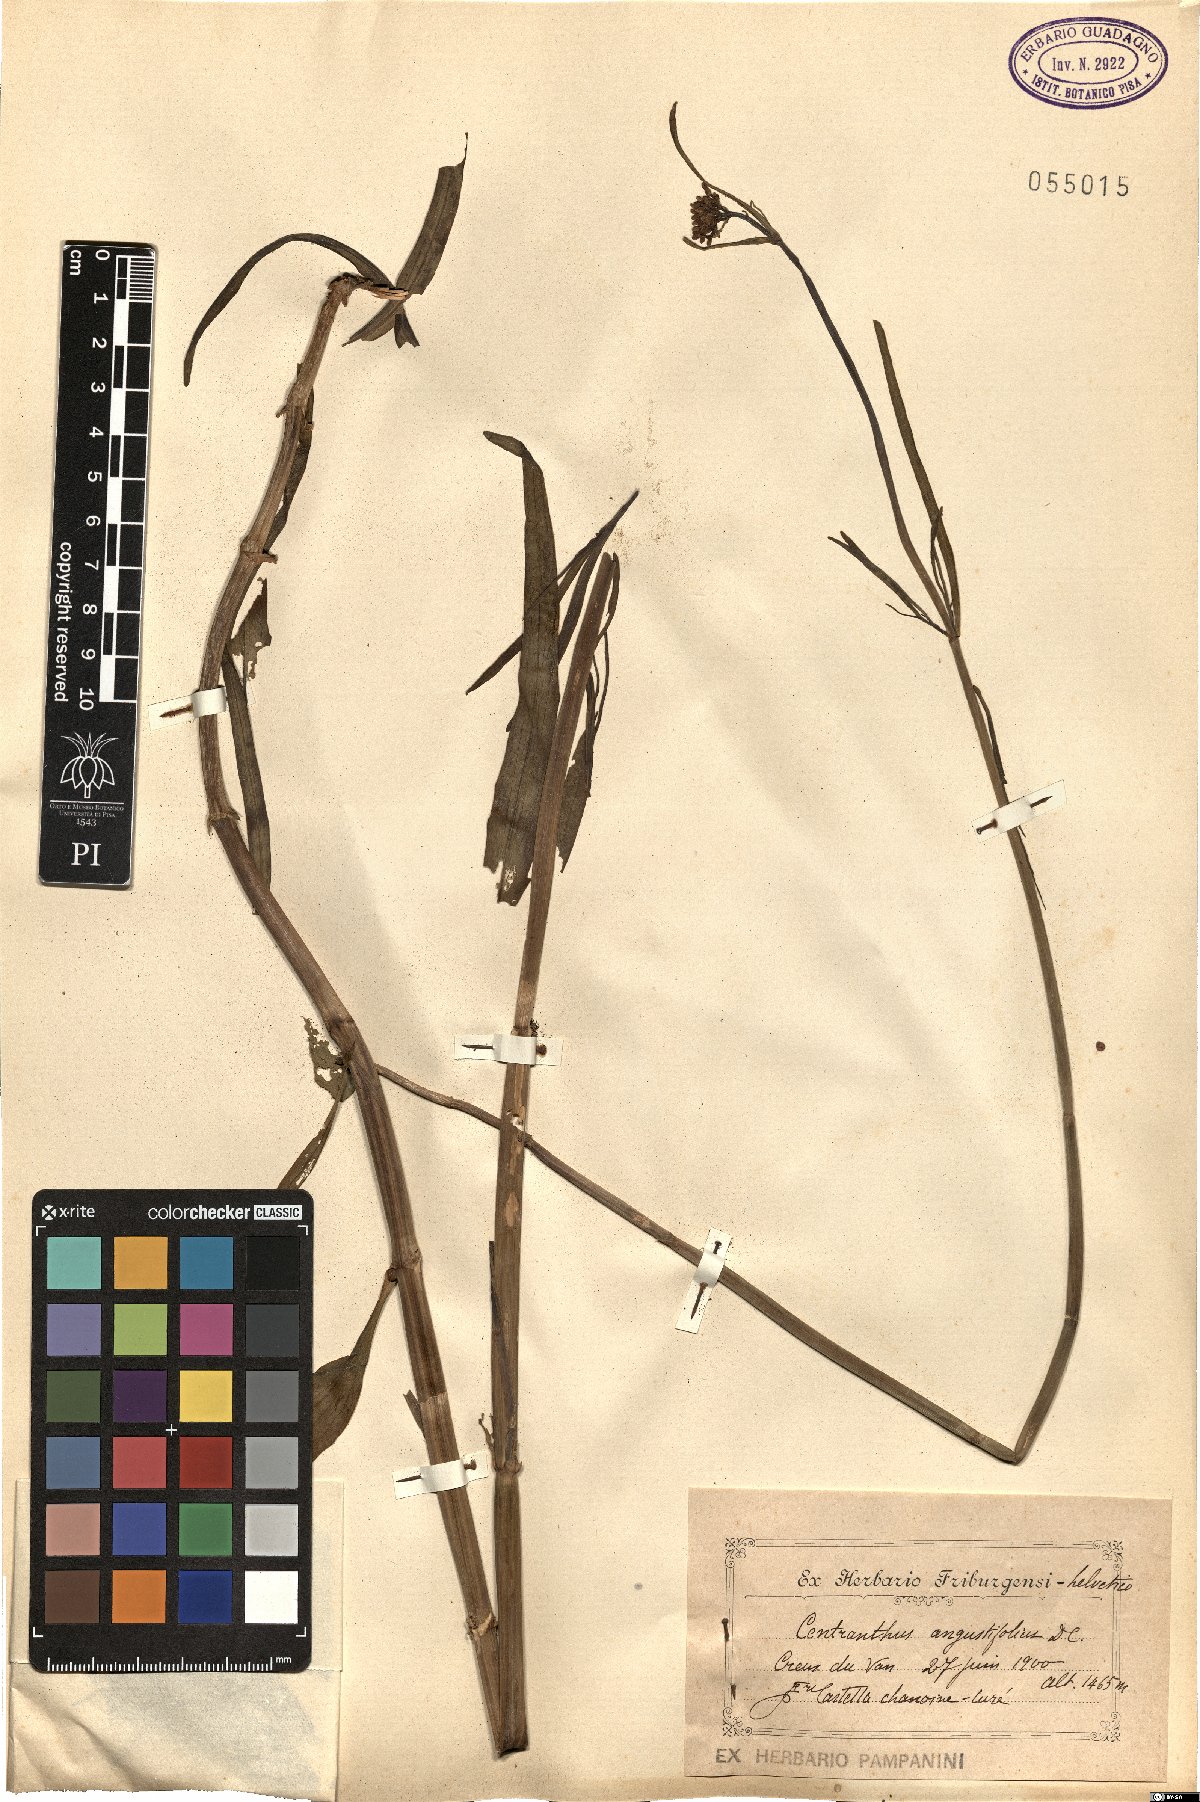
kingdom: Plantae
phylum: Tracheophyta
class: Magnoliopsida
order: Dipsacales
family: Caprifoliaceae
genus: Centranthus
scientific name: Centranthus angustifolius
